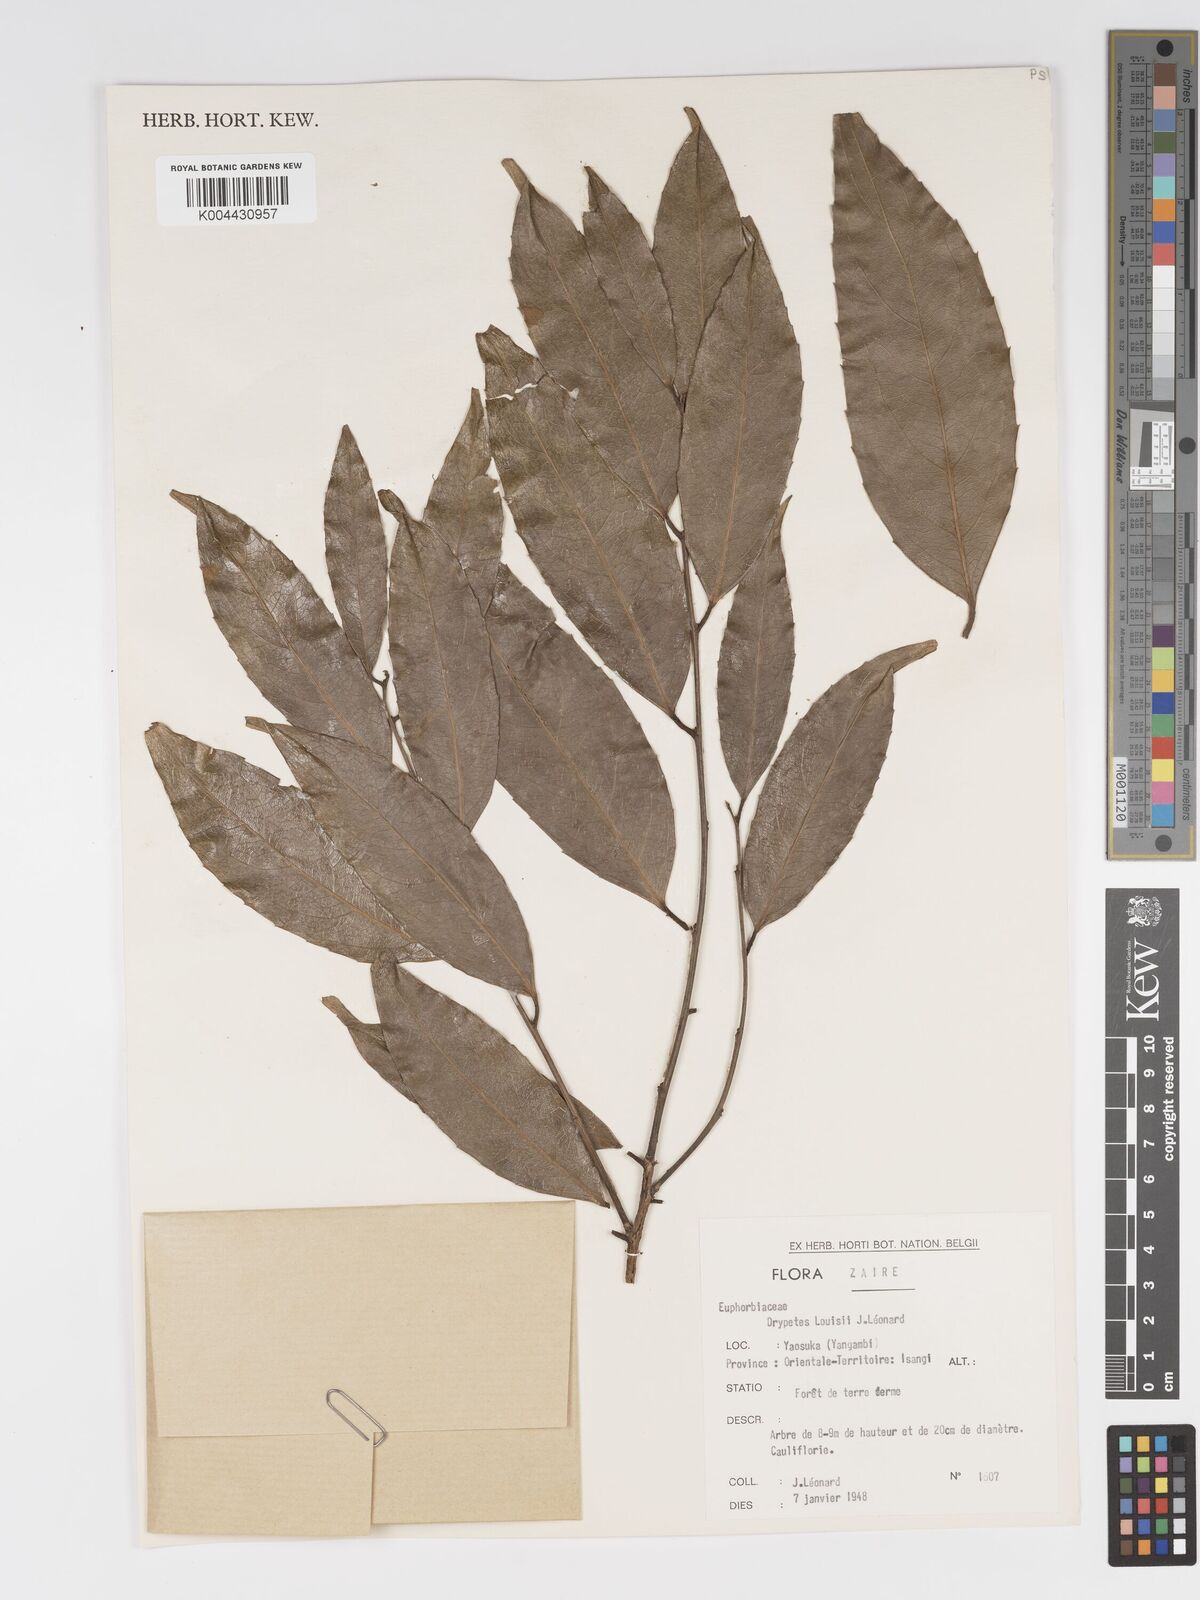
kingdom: Plantae
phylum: Tracheophyta
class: Magnoliopsida
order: Malpighiales
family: Putranjivaceae
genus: Drypetes
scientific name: Drypetes
